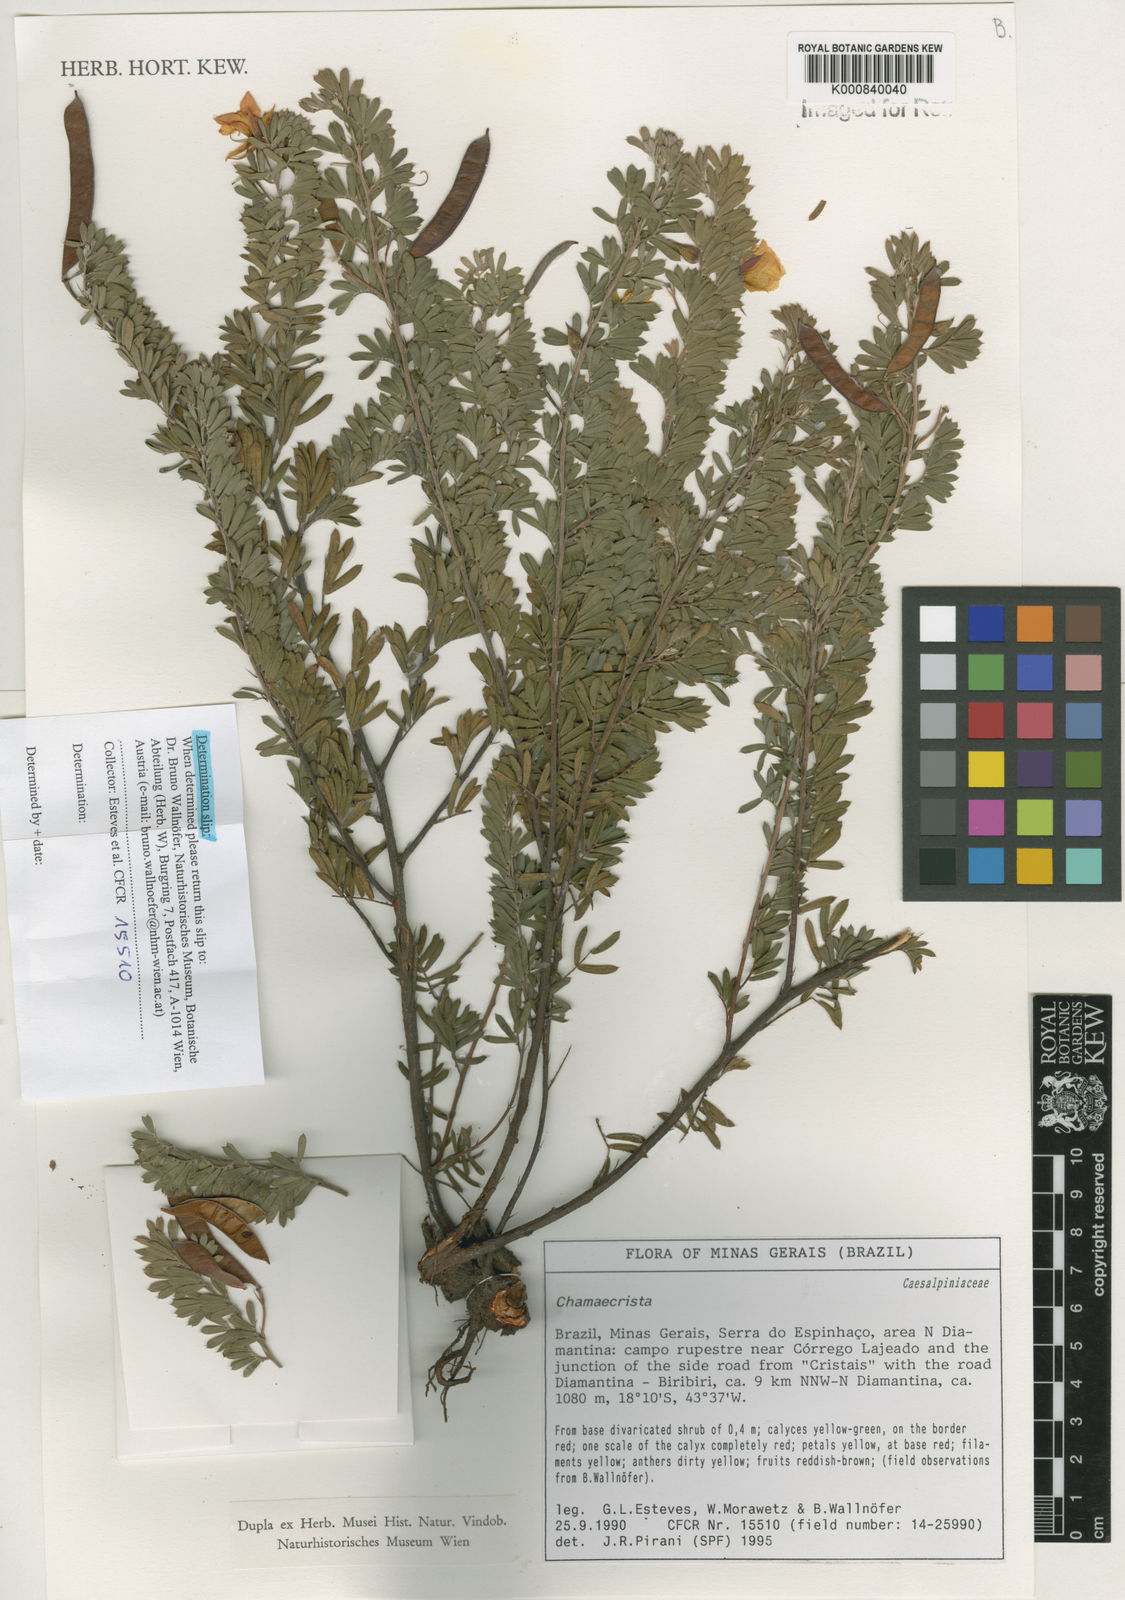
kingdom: Plantae
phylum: Tracheophyta
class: Magnoliopsida
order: Fabales
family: Fabaceae
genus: Chamaecrista
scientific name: Chamaecrista tragacanthoides
